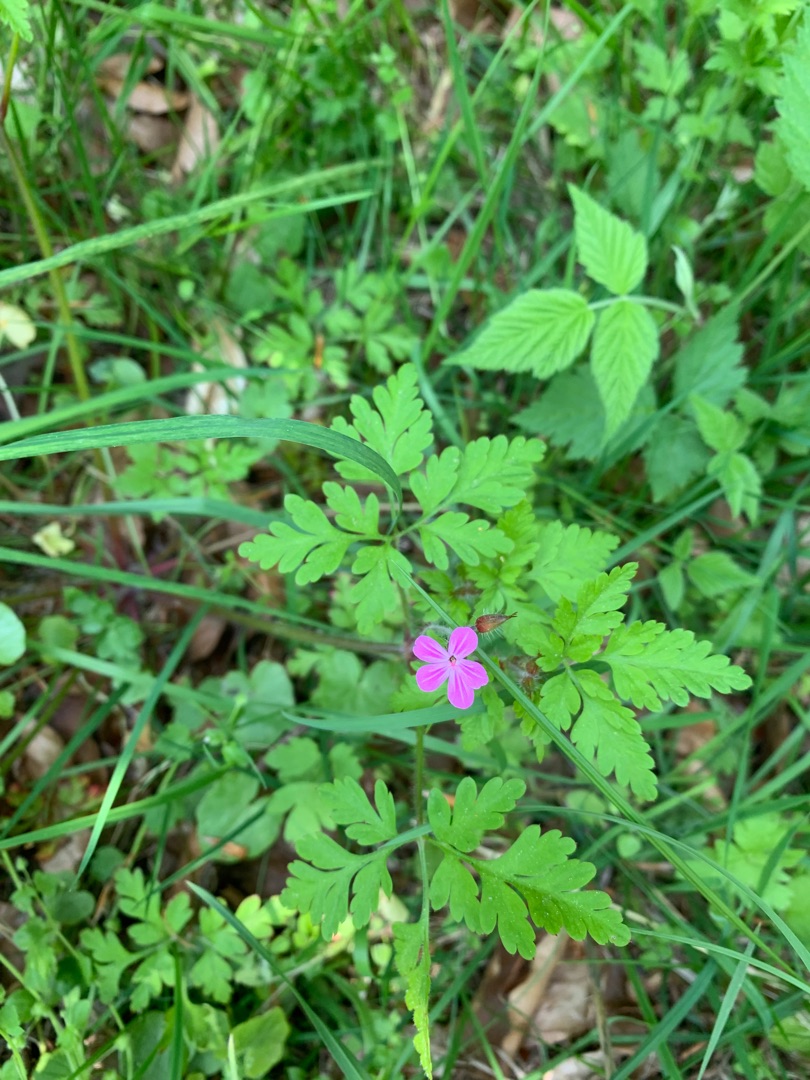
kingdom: Plantae
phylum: Tracheophyta
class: Magnoliopsida
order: Geraniales
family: Geraniaceae
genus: Geranium
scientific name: Geranium robertianum
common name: Stinkende storkenæb
